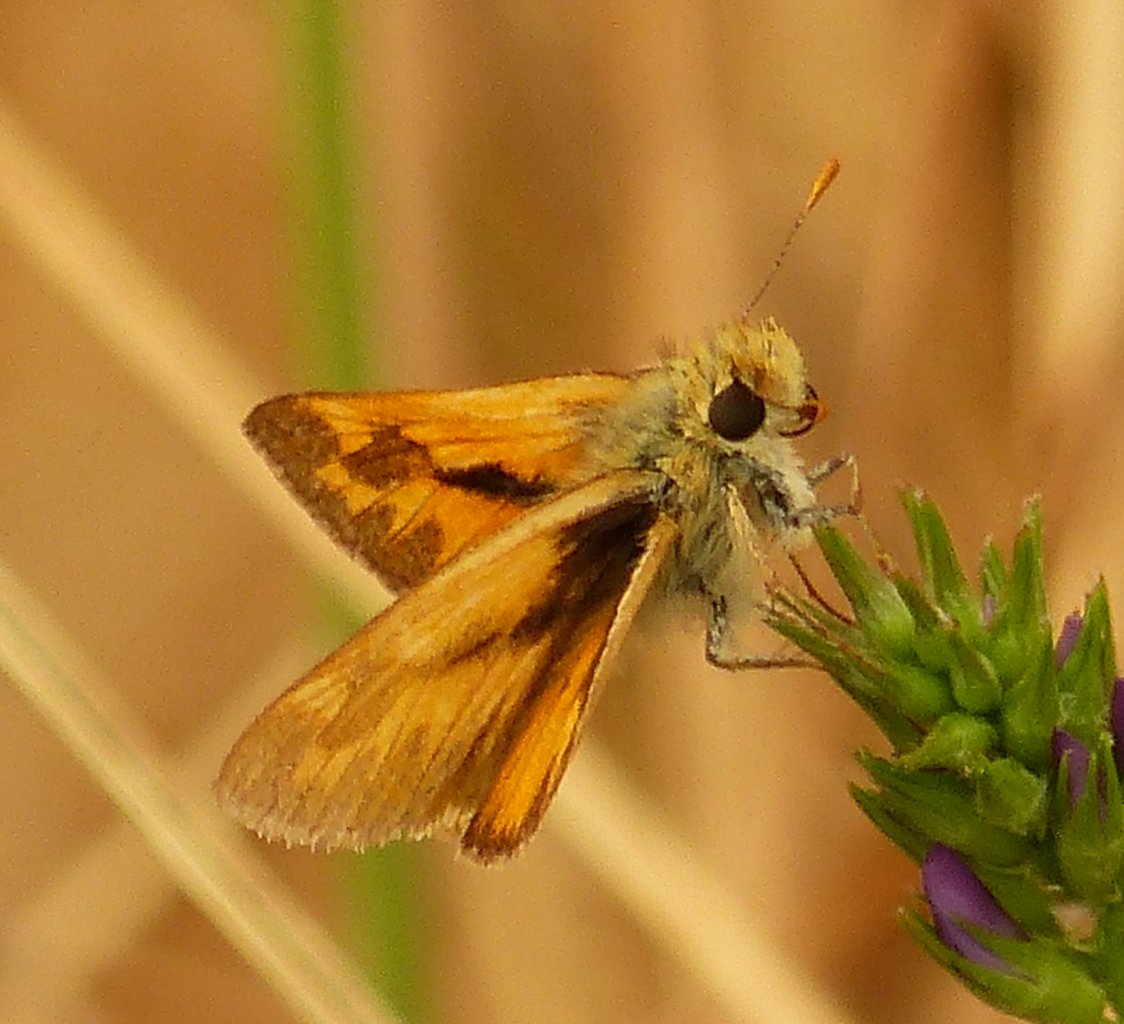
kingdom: Animalia
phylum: Arthropoda
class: Insecta
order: Lepidoptera
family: Hesperiidae
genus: Ochlodes
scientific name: Ochlodes sylvanoides
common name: Woodland Skipper
